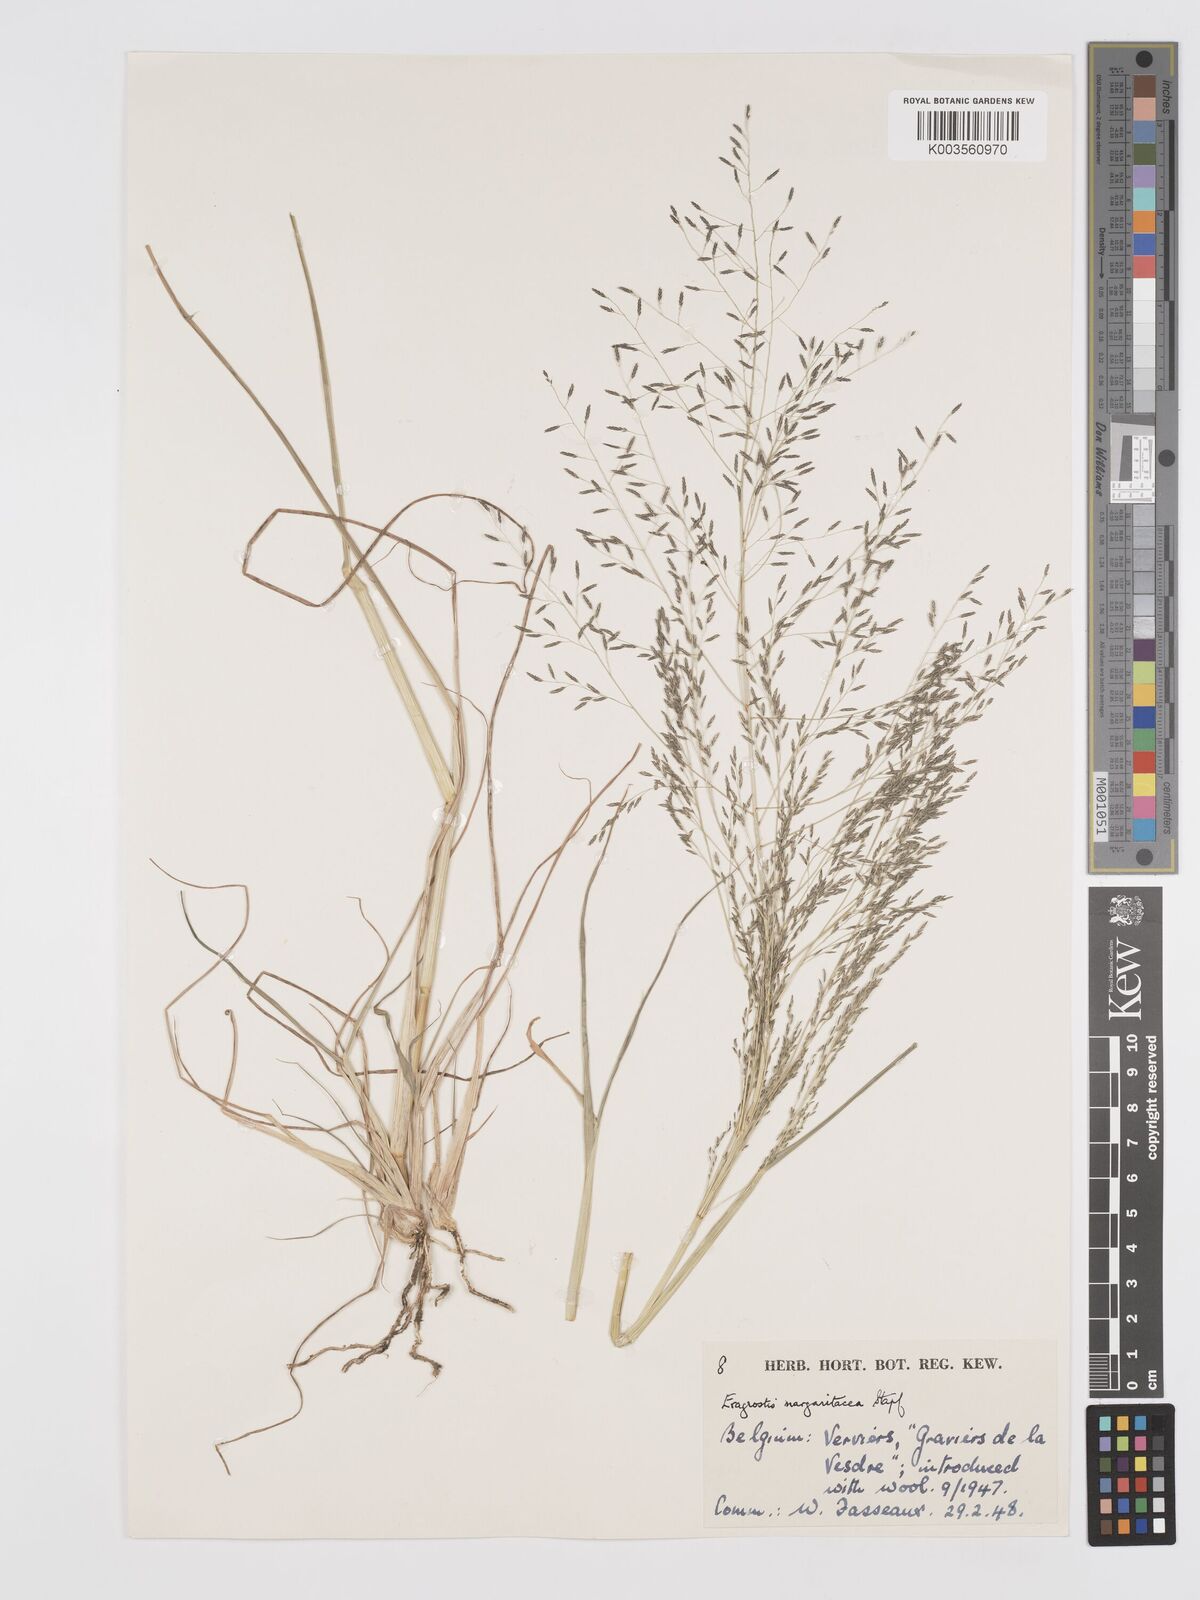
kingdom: Plantae
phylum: Tracheophyta
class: Liliopsida
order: Poales
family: Poaceae
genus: Eragrostis
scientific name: Eragrostis rotifer
